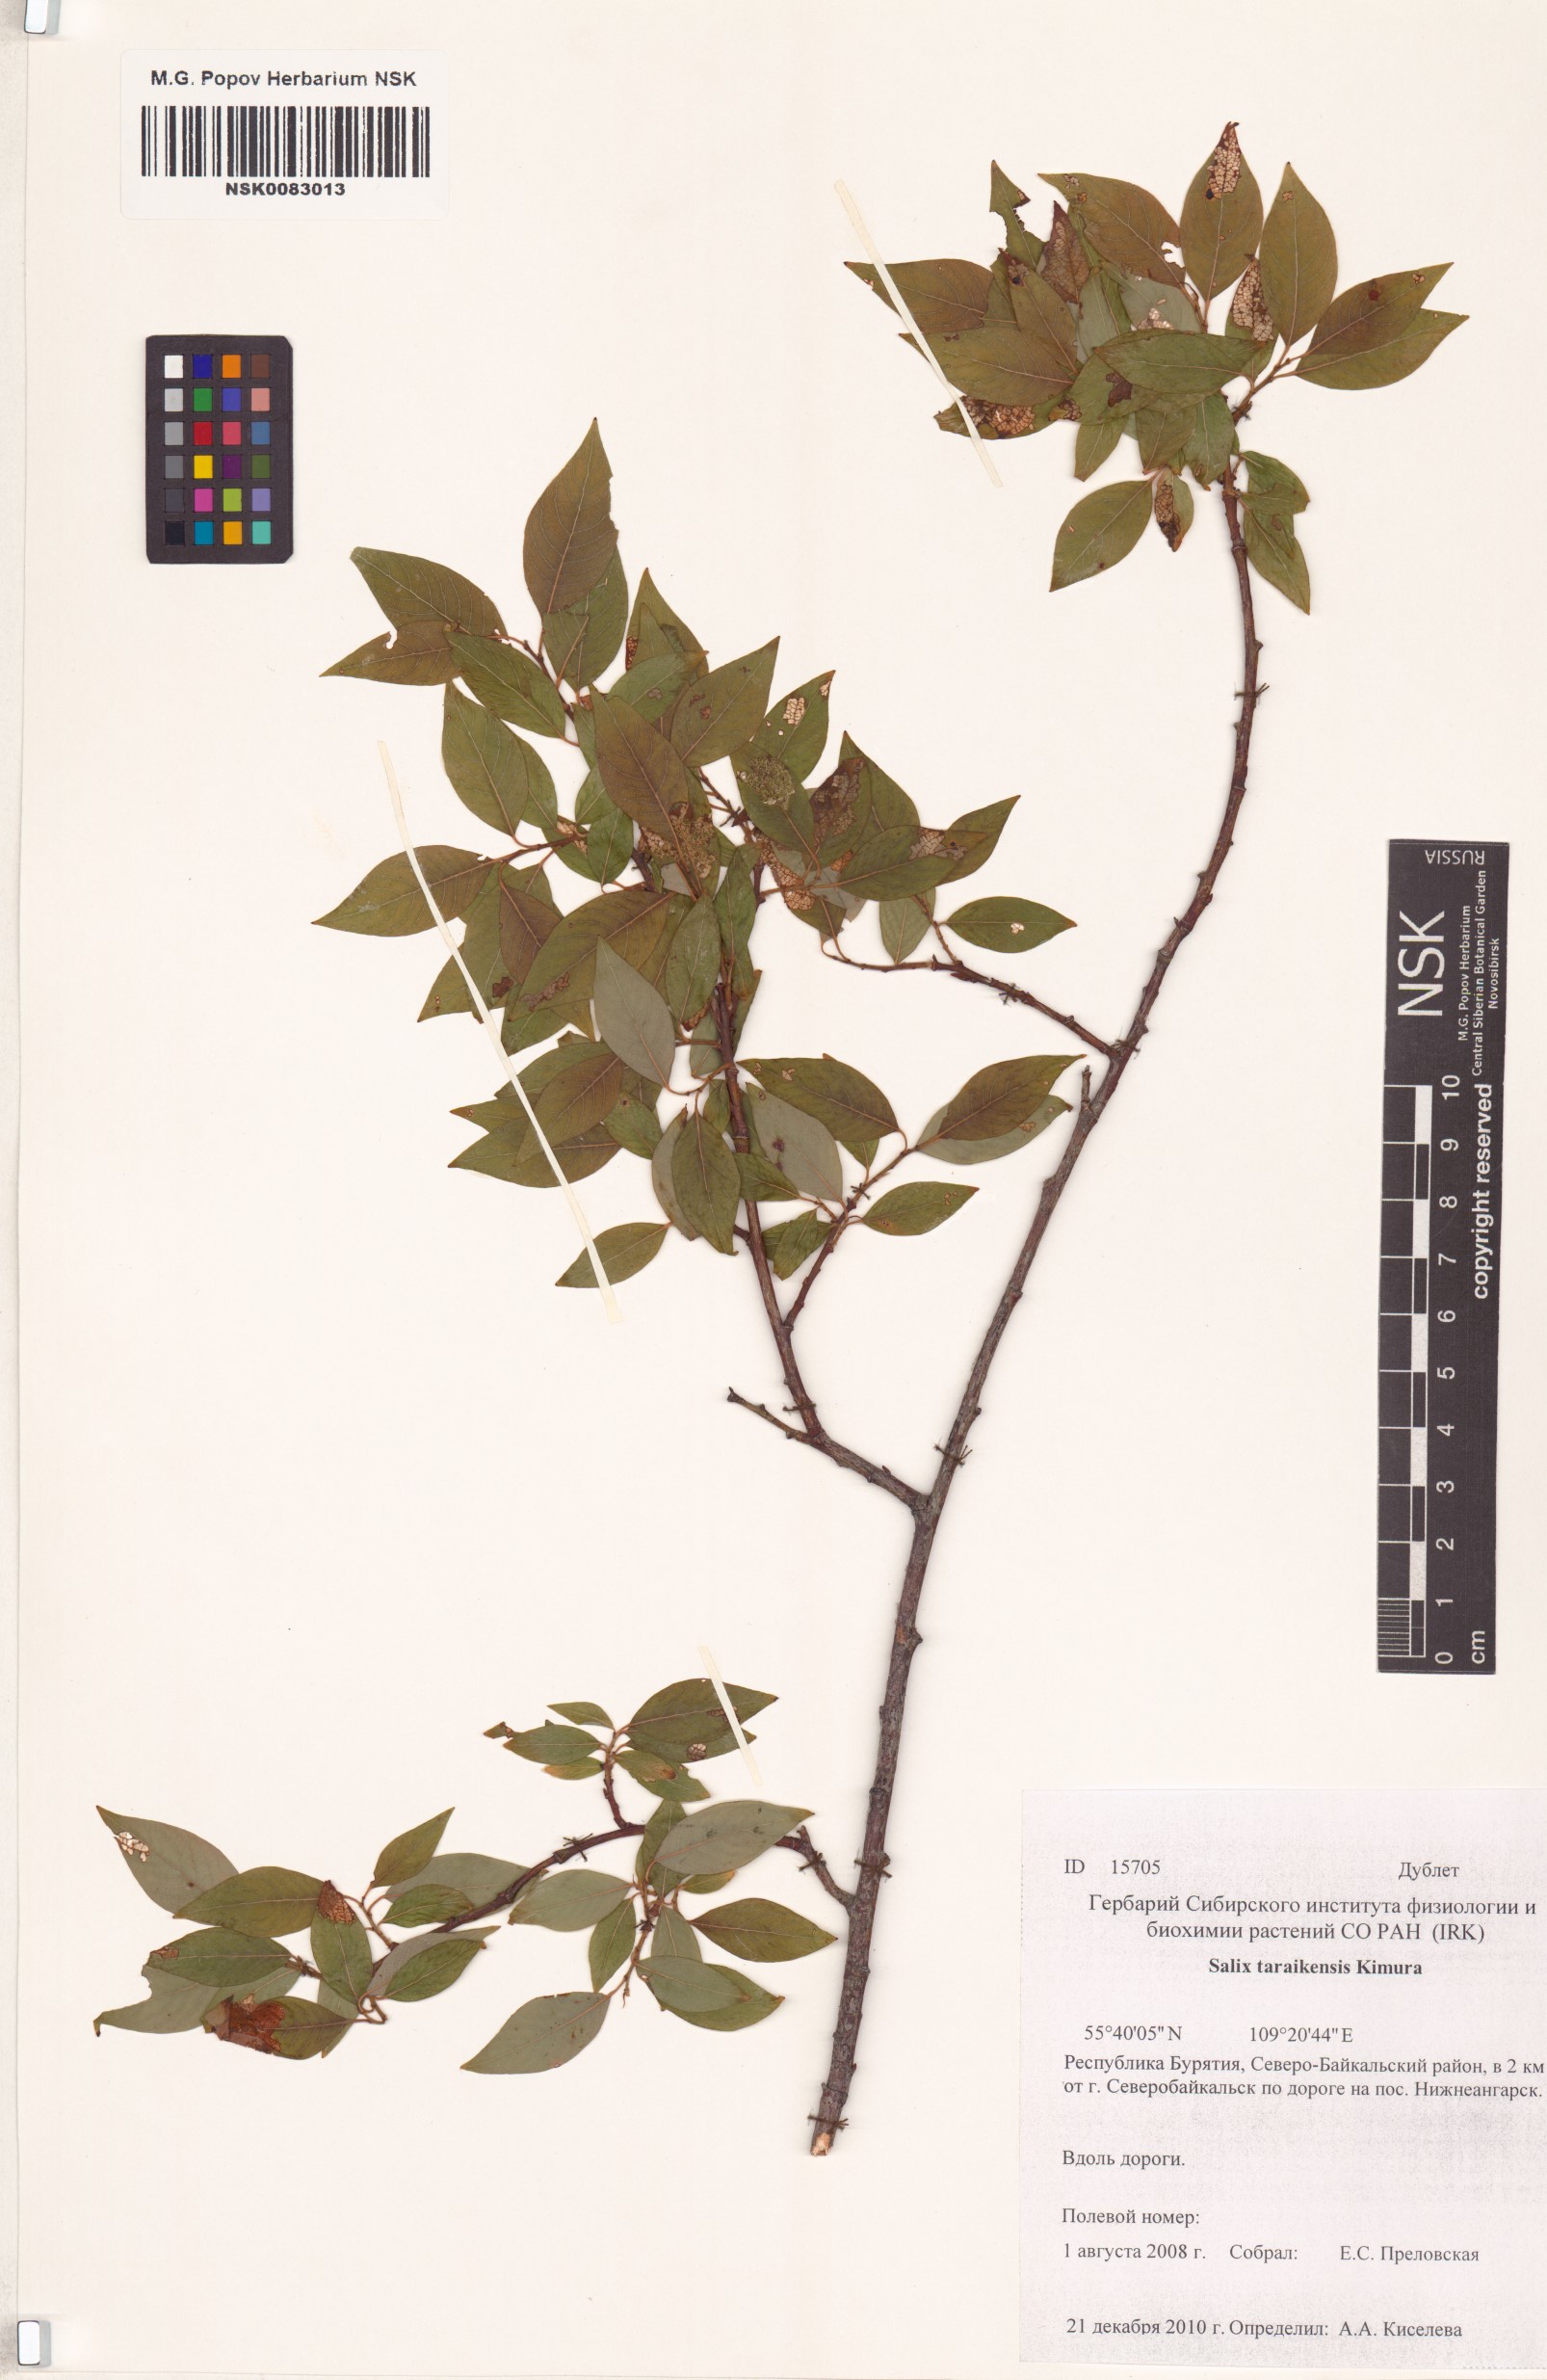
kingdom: Plantae
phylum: Tracheophyta
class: Magnoliopsida
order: Malpighiales
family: Salicaceae
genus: Salix
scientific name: Salix taraikensis
